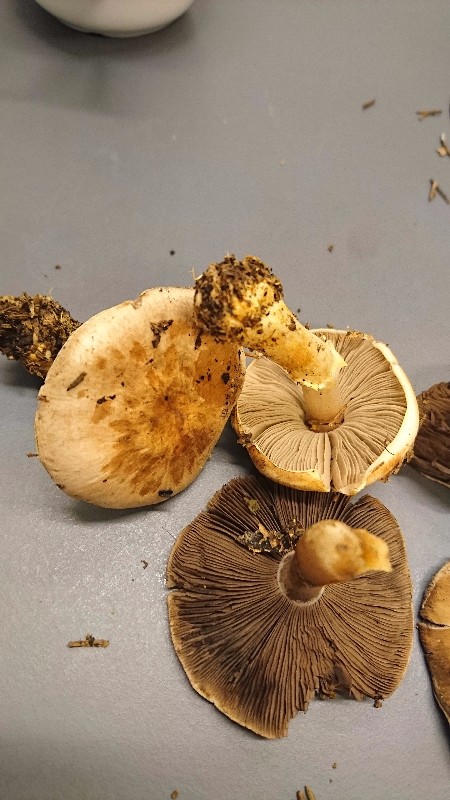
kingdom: Fungi
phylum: Basidiomycota
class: Agaricomycetes
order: Agaricales
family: Agaricaceae
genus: Agaricus
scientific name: Agaricus brunneolus
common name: purpur-champignon
